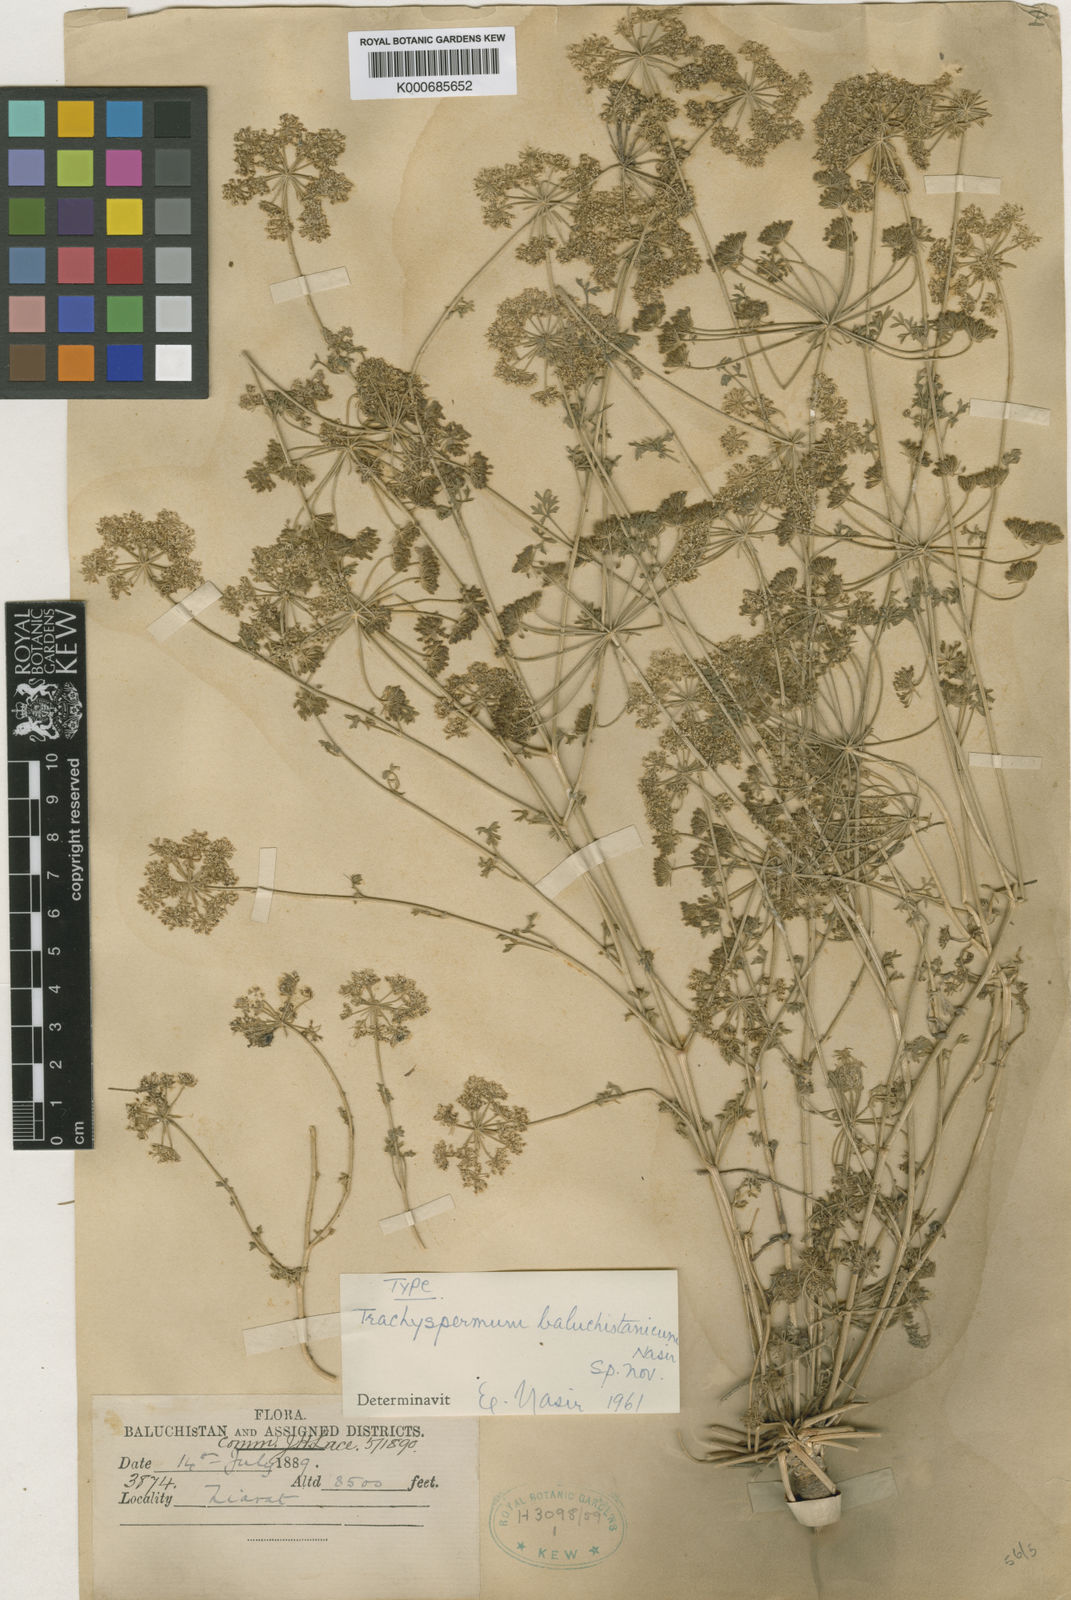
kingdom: Plantae
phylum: Tracheophyta
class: Magnoliopsida
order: Apiales
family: Apiaceae
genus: Trachyspermum
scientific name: Trachyspermum baluchistanicum
